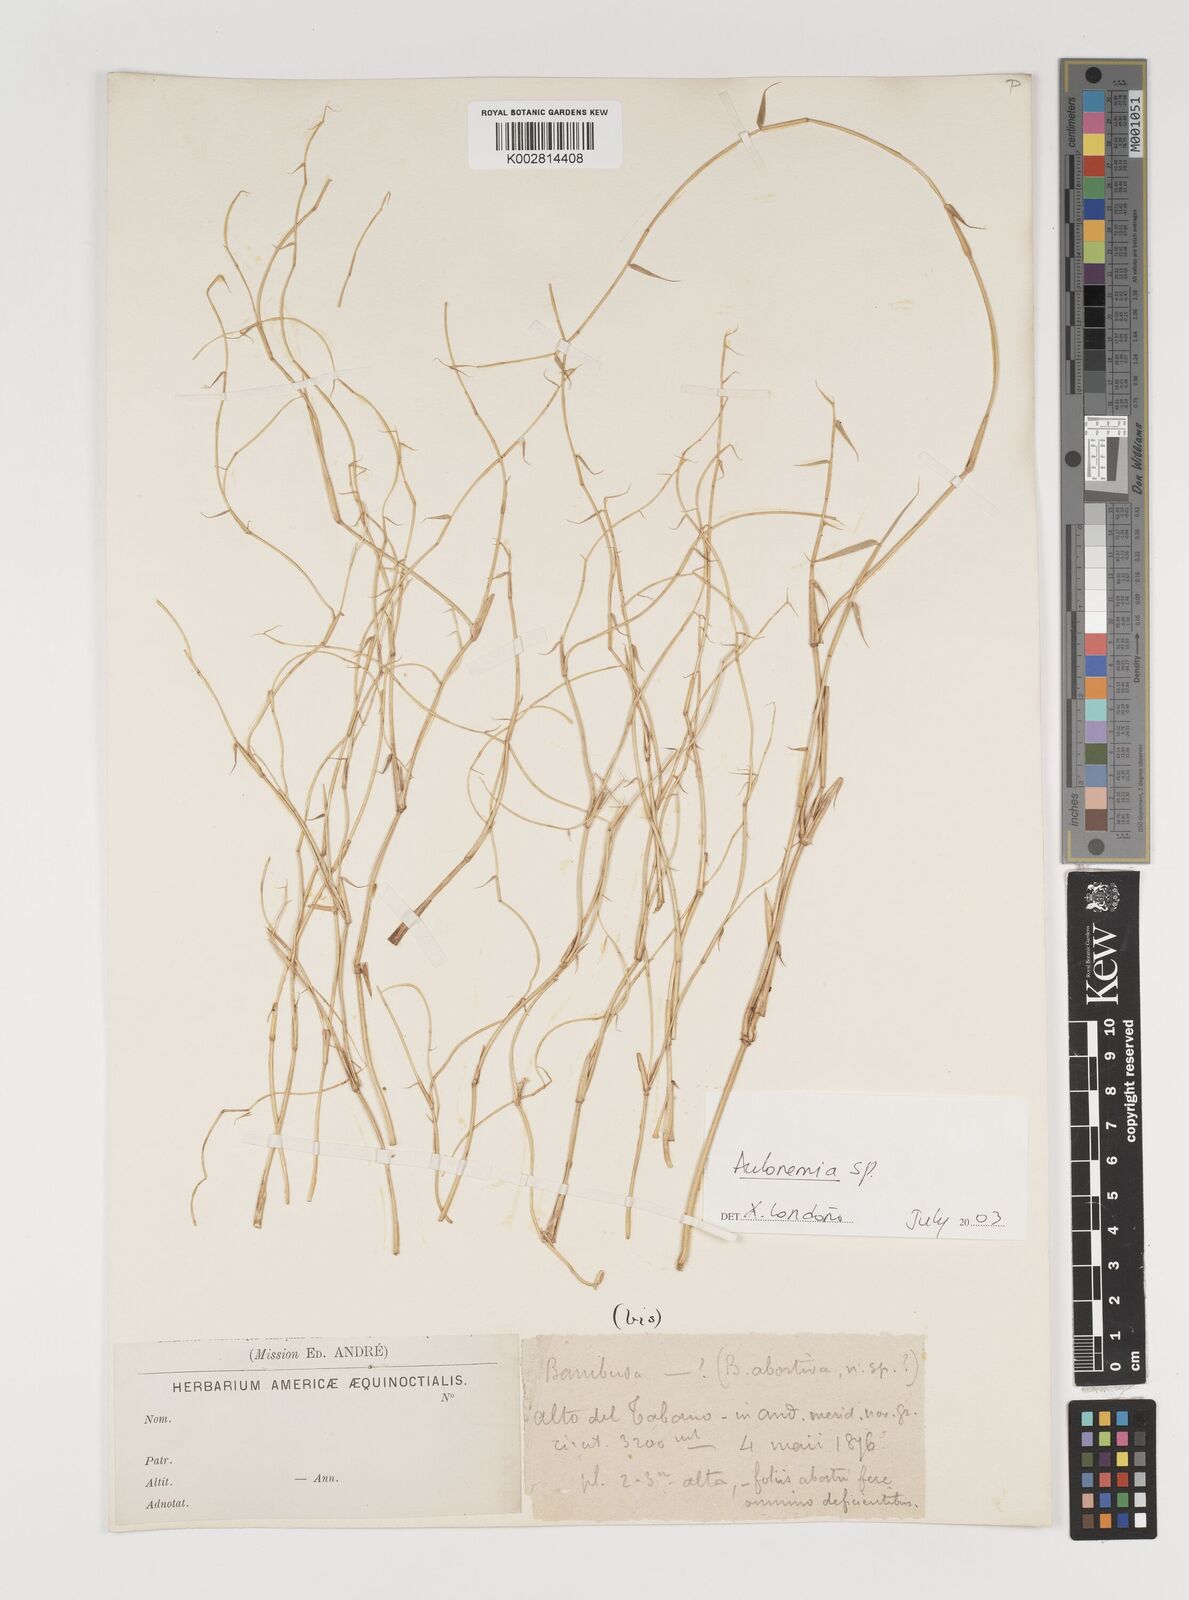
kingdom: Plantae
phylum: Tracheophyta
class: Liliopsida
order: Poales
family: Poaceae
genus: Aulonemia
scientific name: Aulonemia
